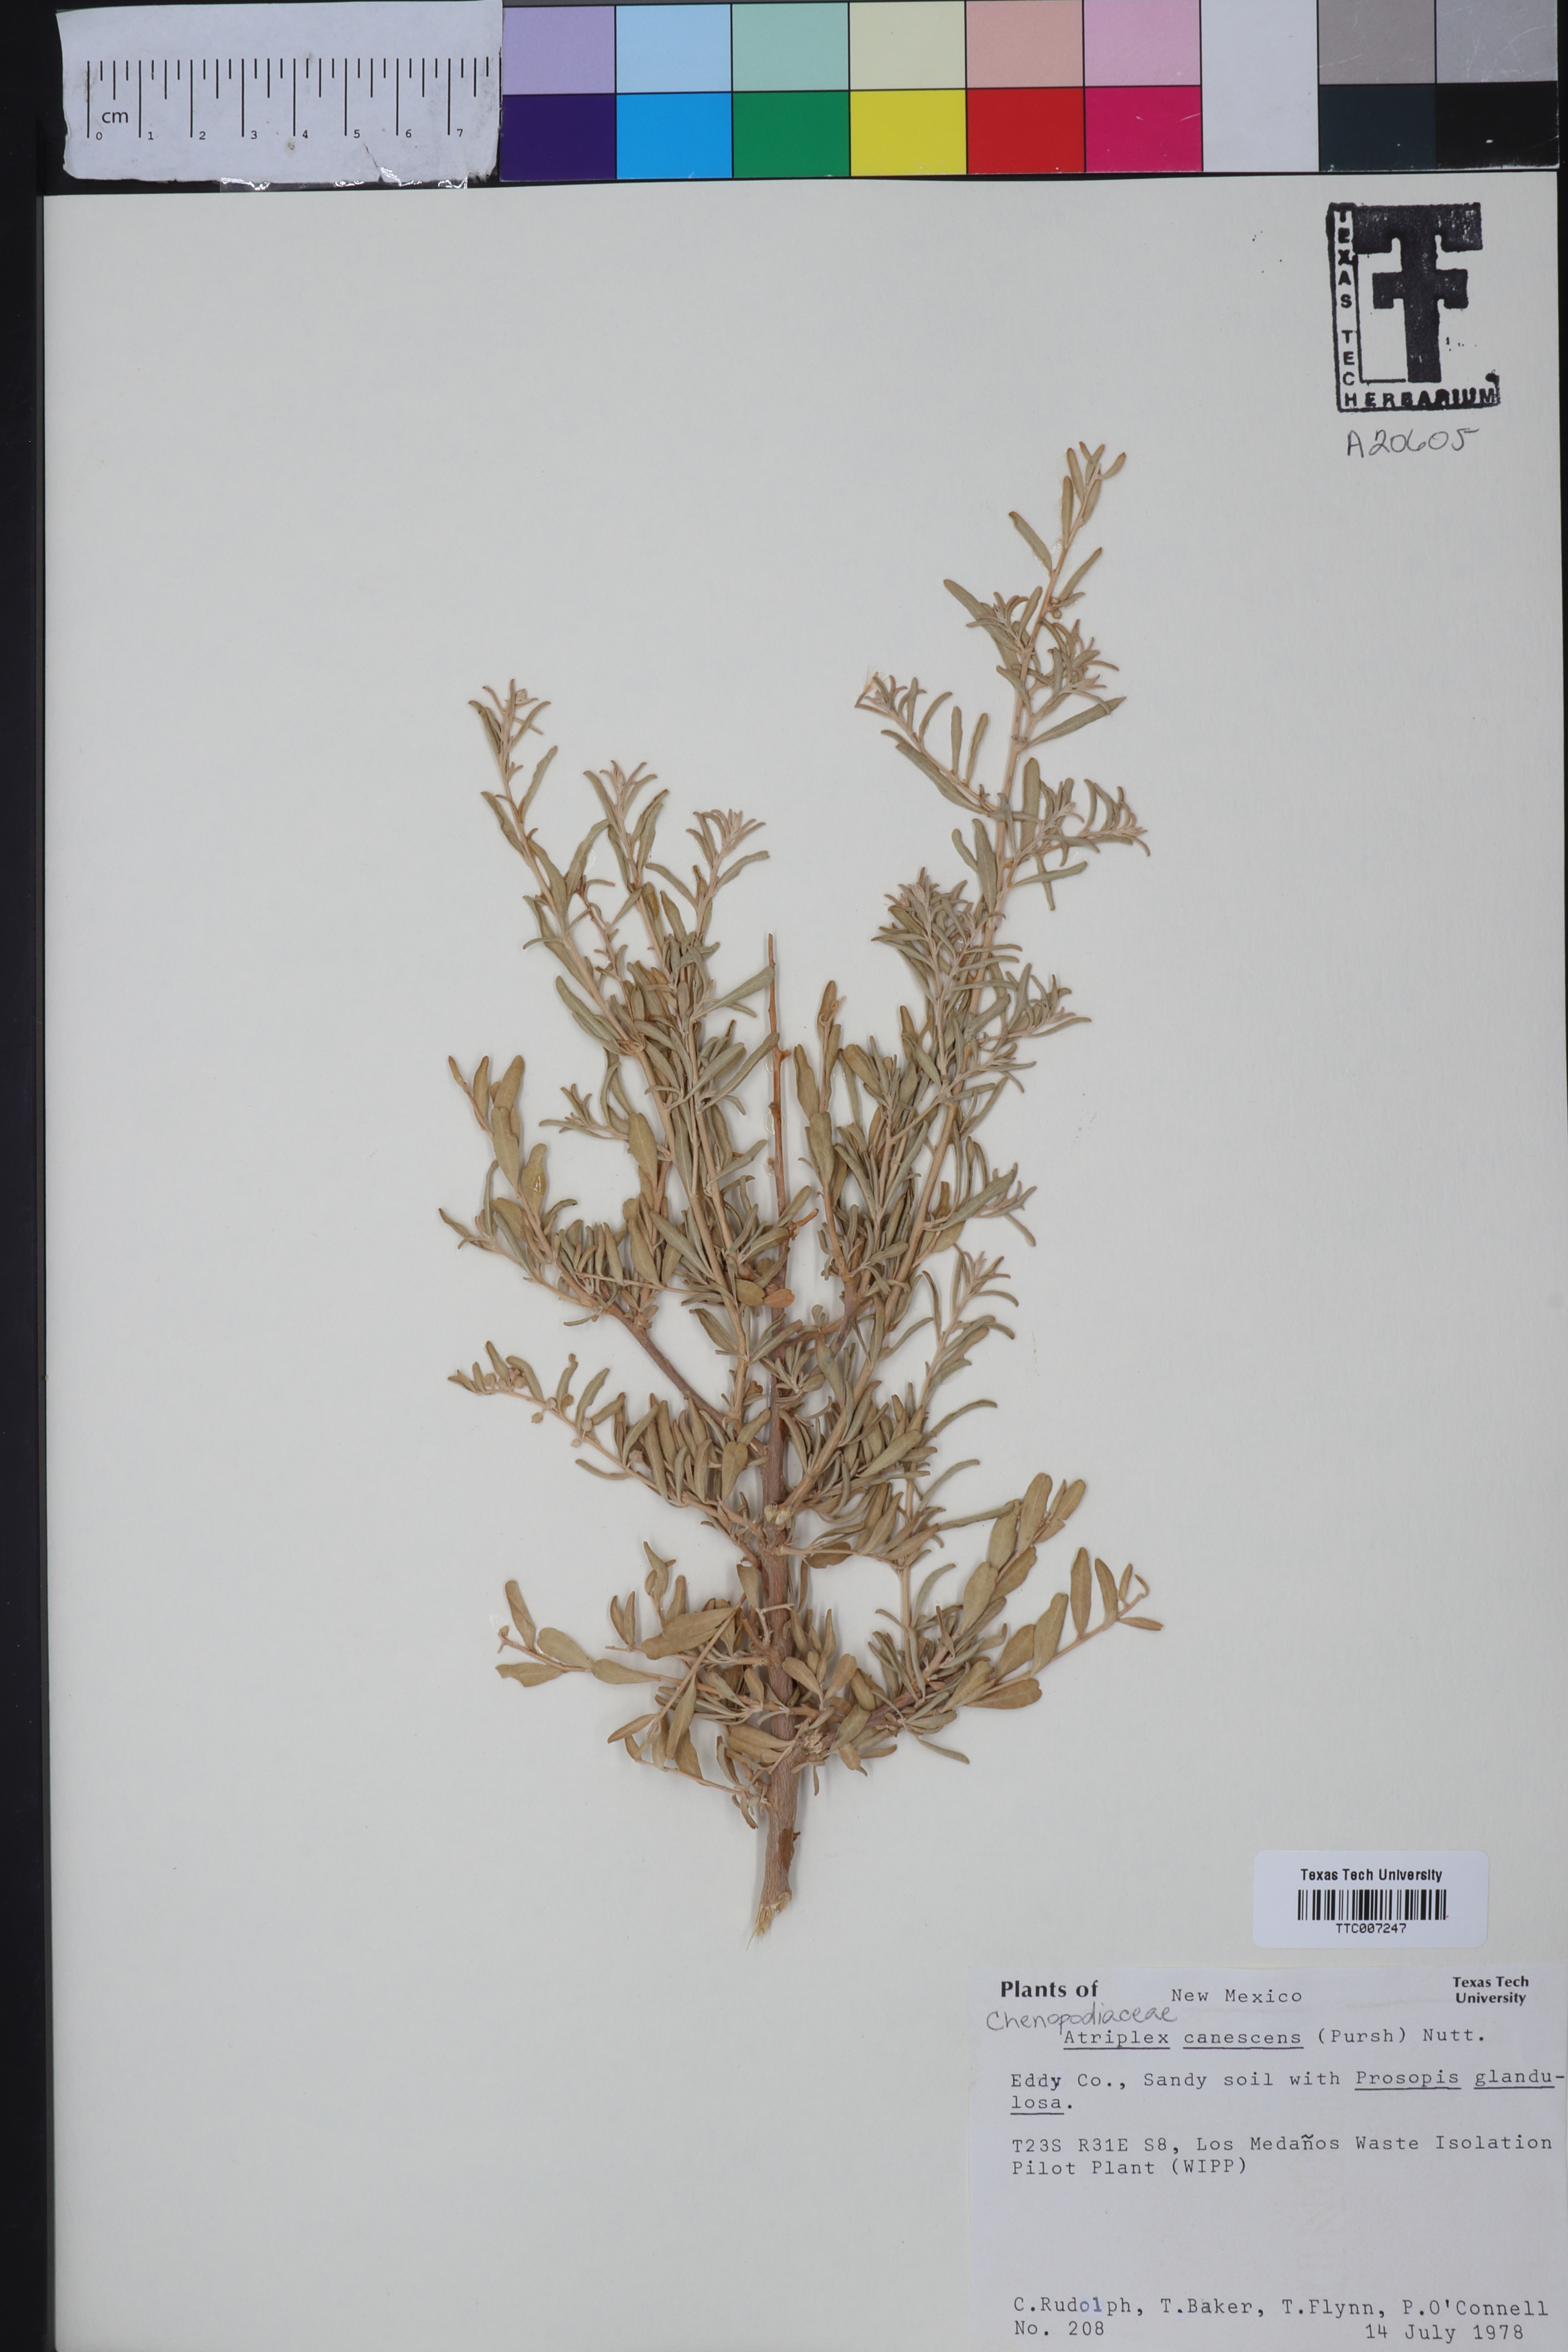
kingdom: Plantae
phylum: Tracheophyta
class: Magnoliopsida
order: Caryophyllales
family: Amaranthaceae
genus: Atriplex
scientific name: Atriplex canescens
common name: Four-wing saltbush
